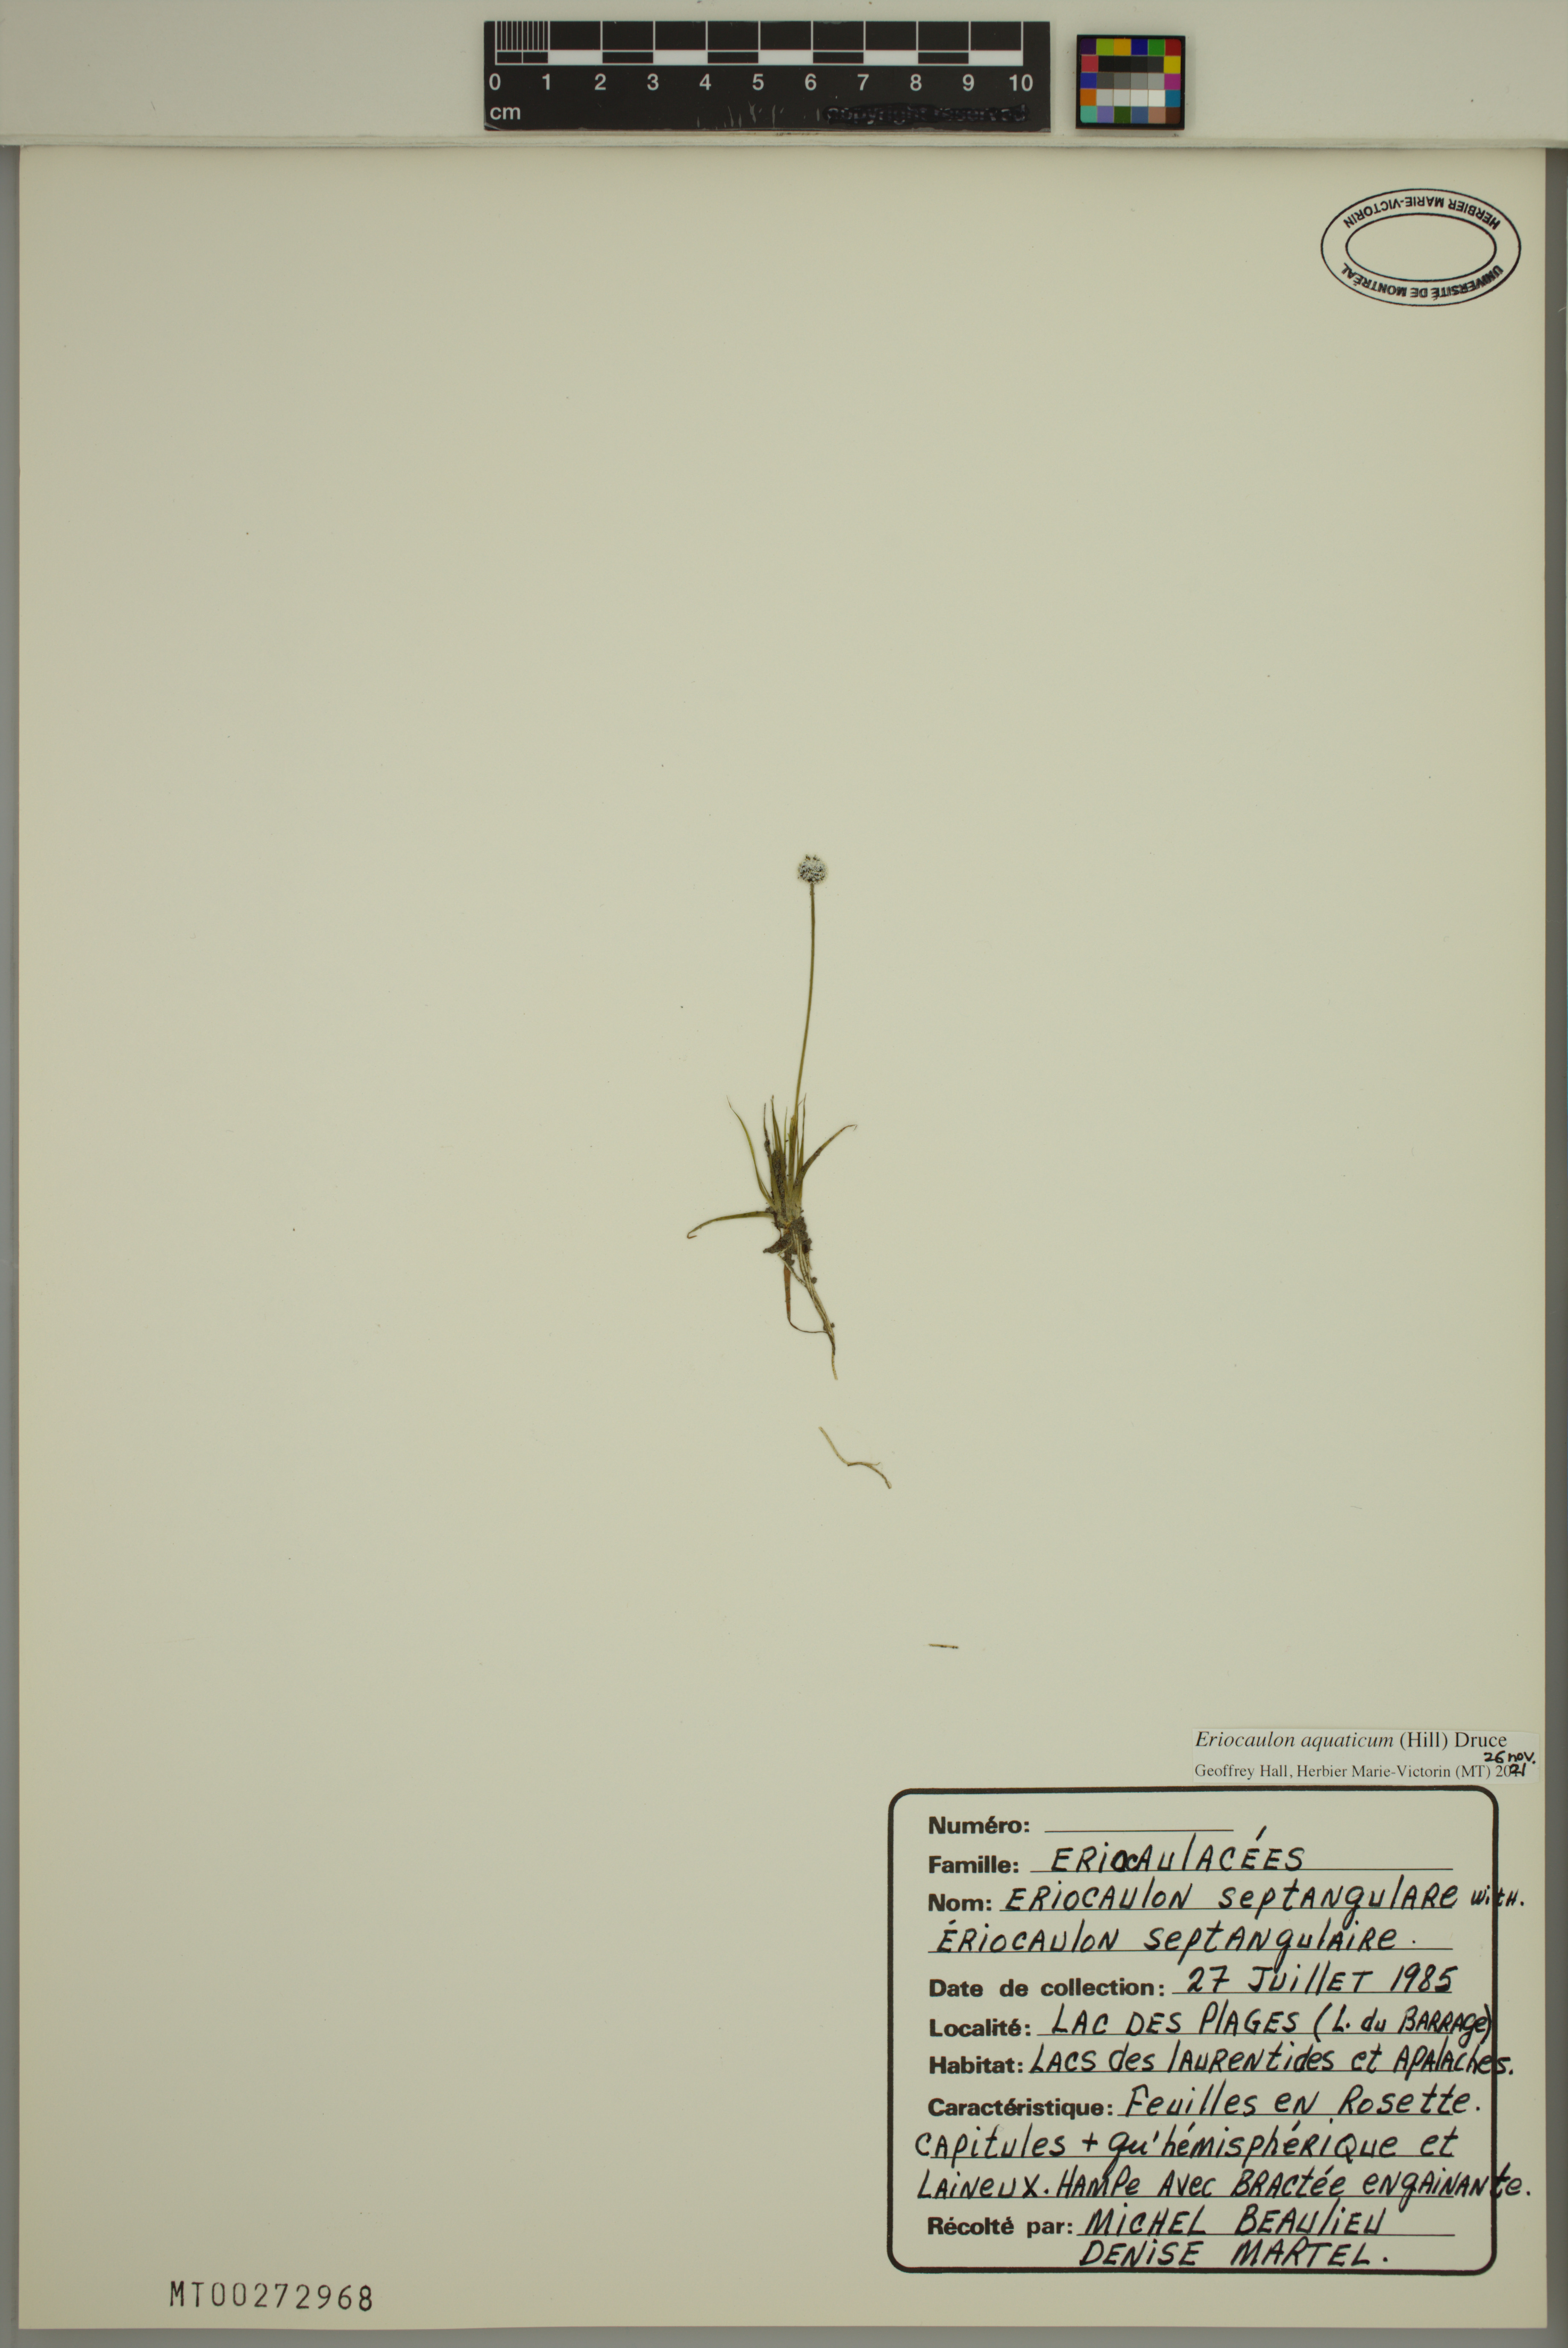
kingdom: Plantae
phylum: Tracheophyta
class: Liliopsida
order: Poales
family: Eriocaulaceae
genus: Eriocaulon
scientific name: Eriocaulon aquaticum
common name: Pipewort
